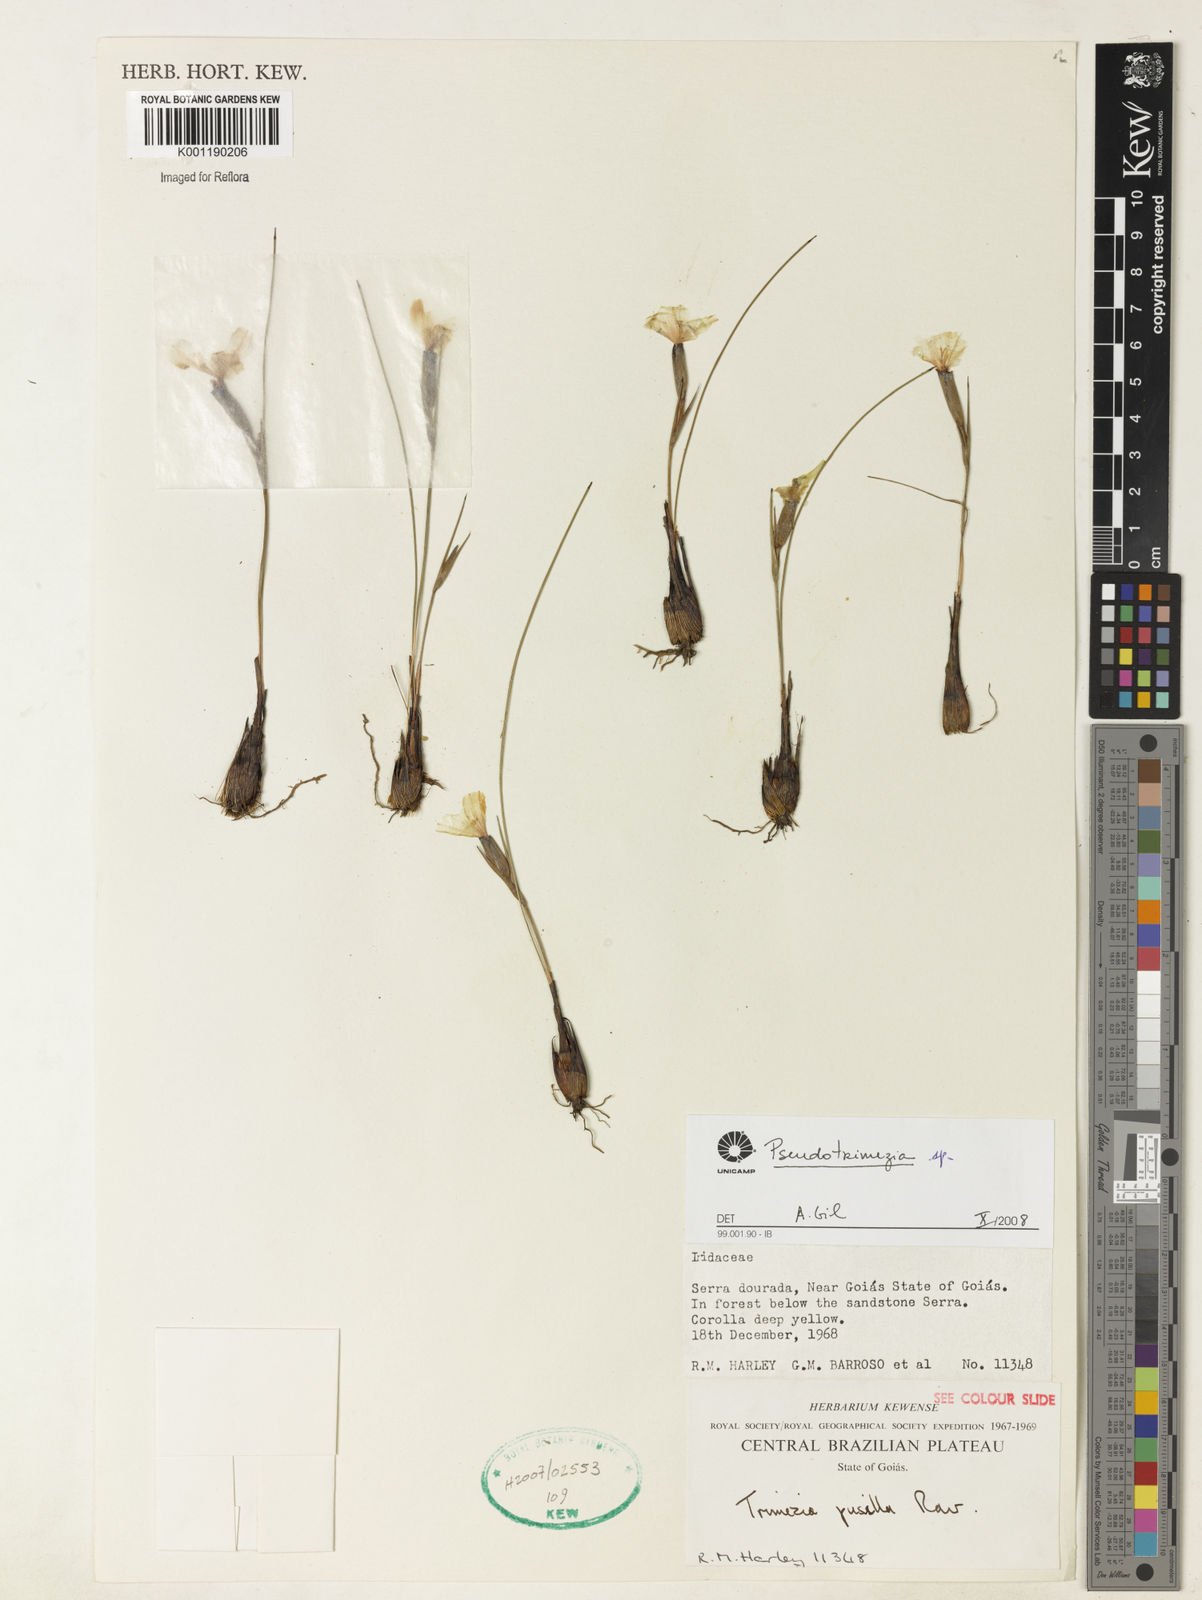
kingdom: Plantae
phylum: Tracheophyta
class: Liliopsida
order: Asparagales
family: Iridaceae
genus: Trimezia
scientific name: Trimezia
